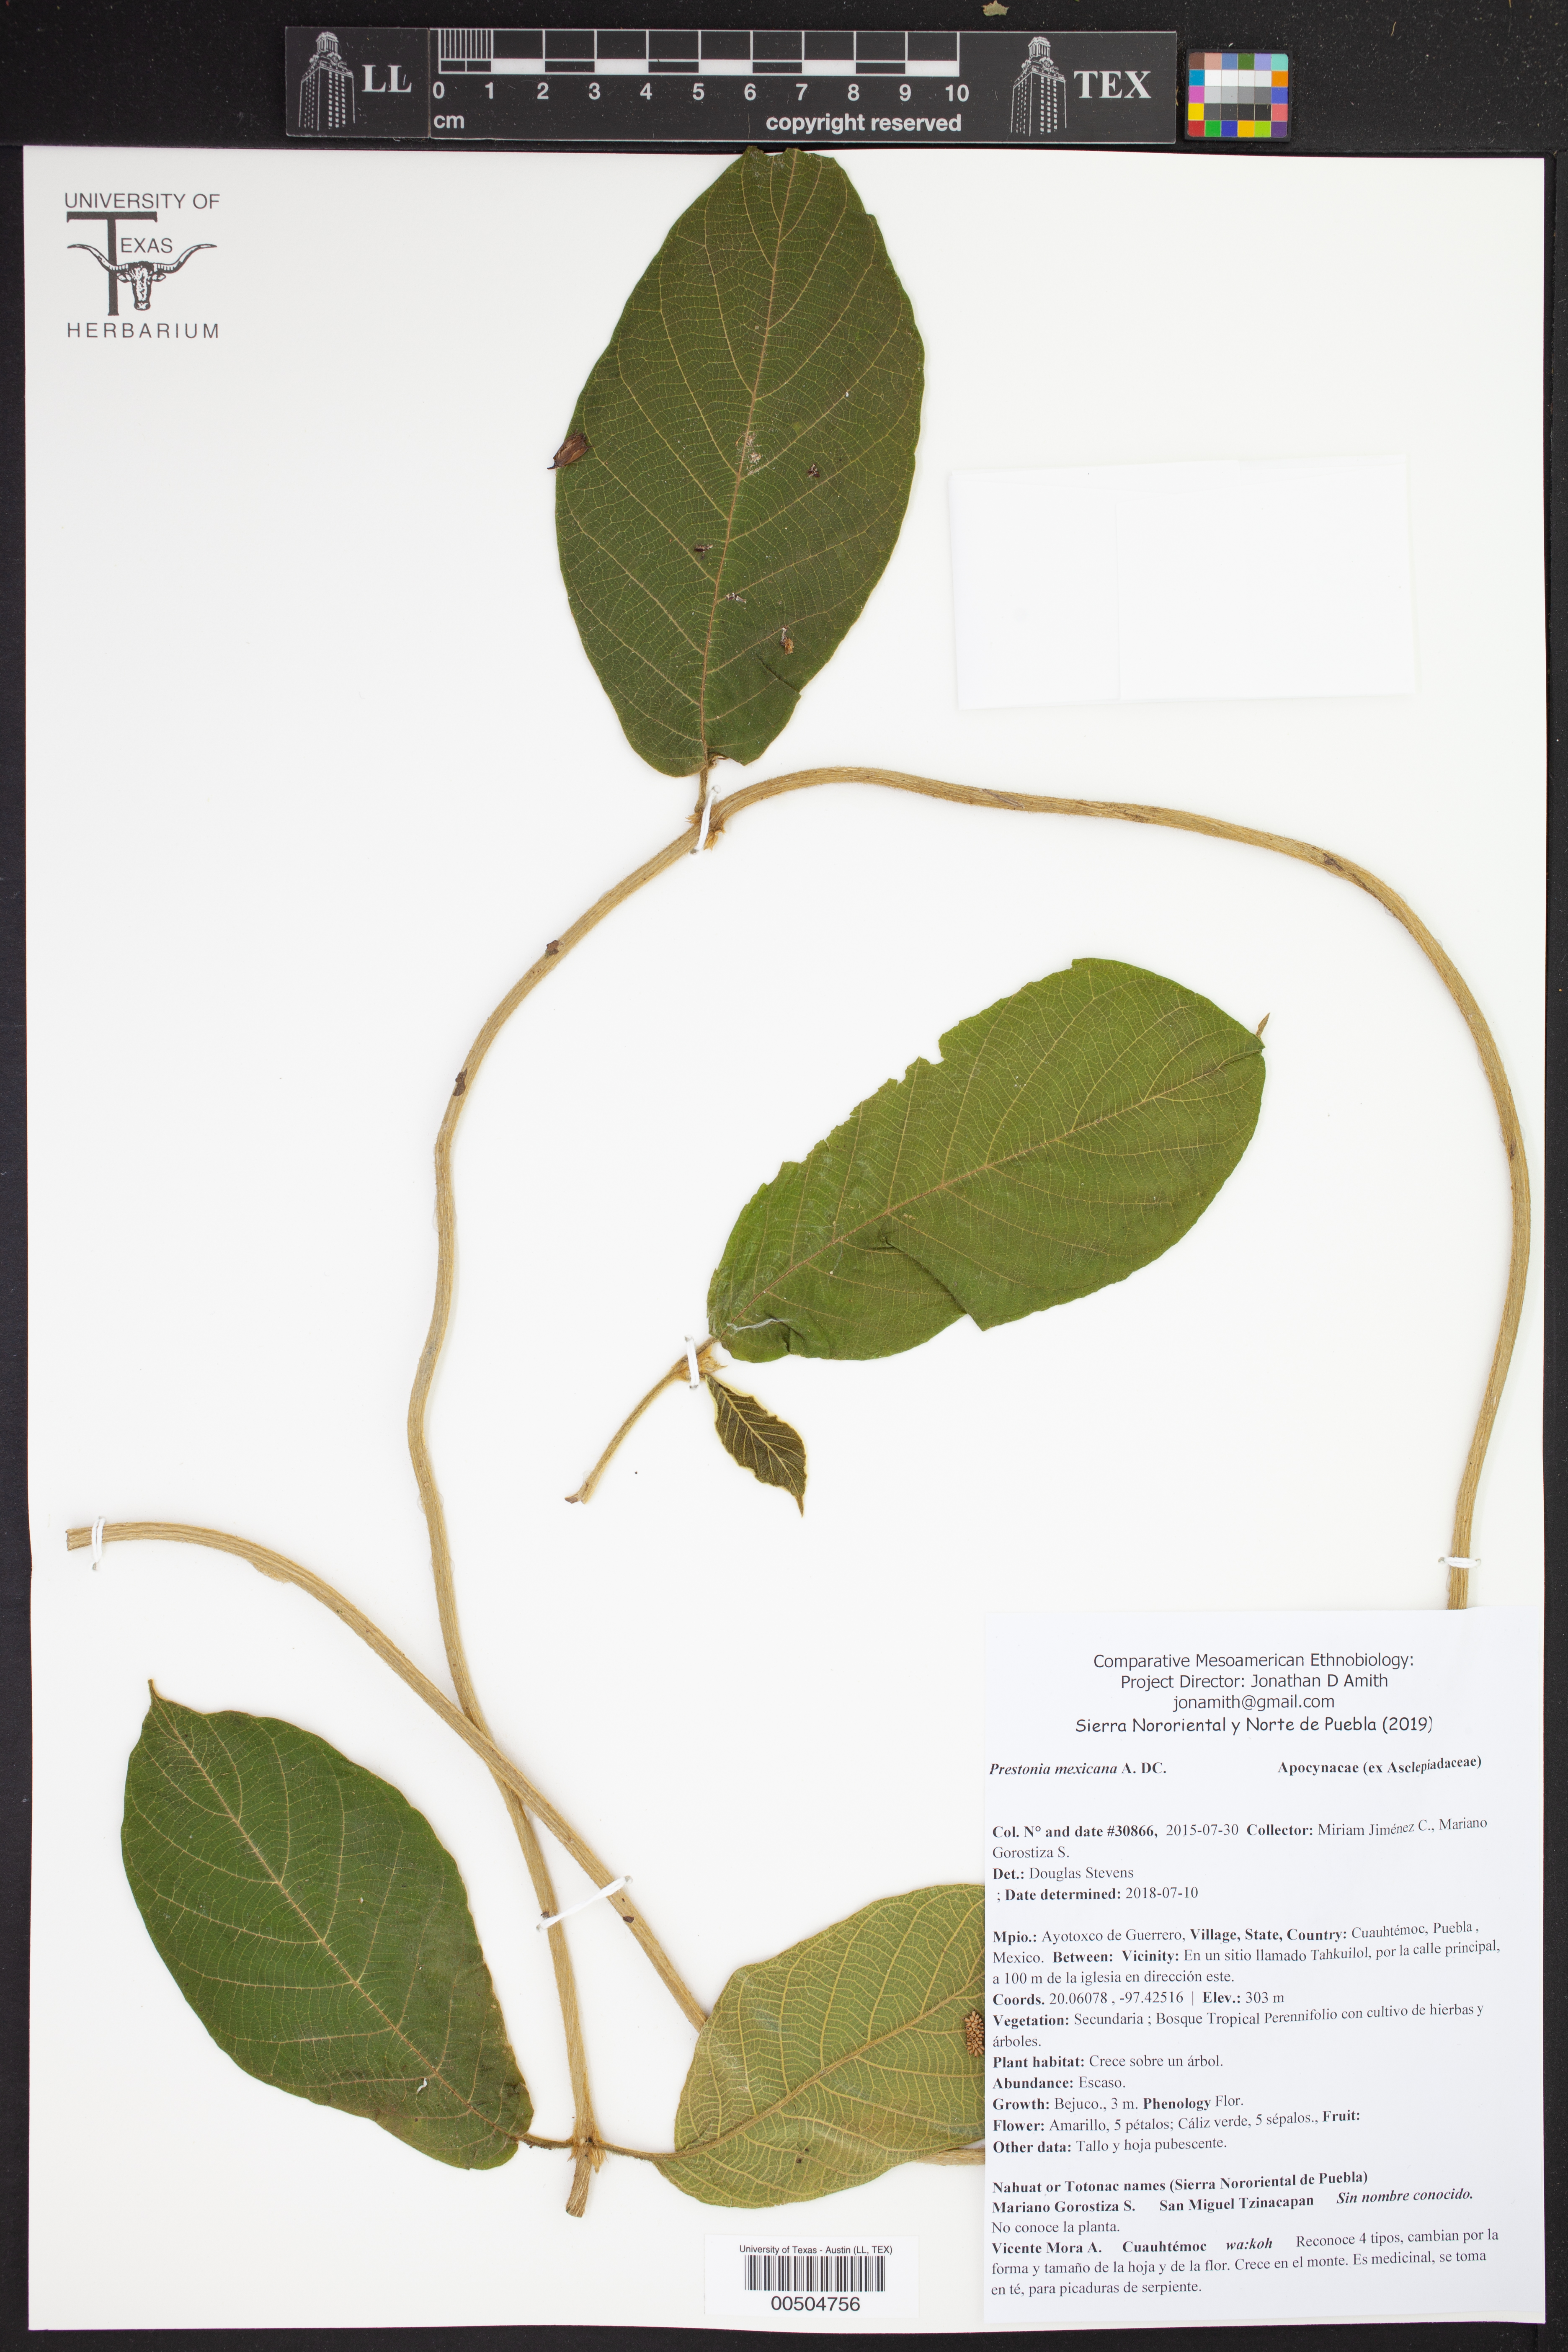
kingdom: Plantae
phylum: Tracheophyta
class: Magnoliopsida
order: Gentianales
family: Apocynaceae
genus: Prestonia
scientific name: Prestonia mexicana
